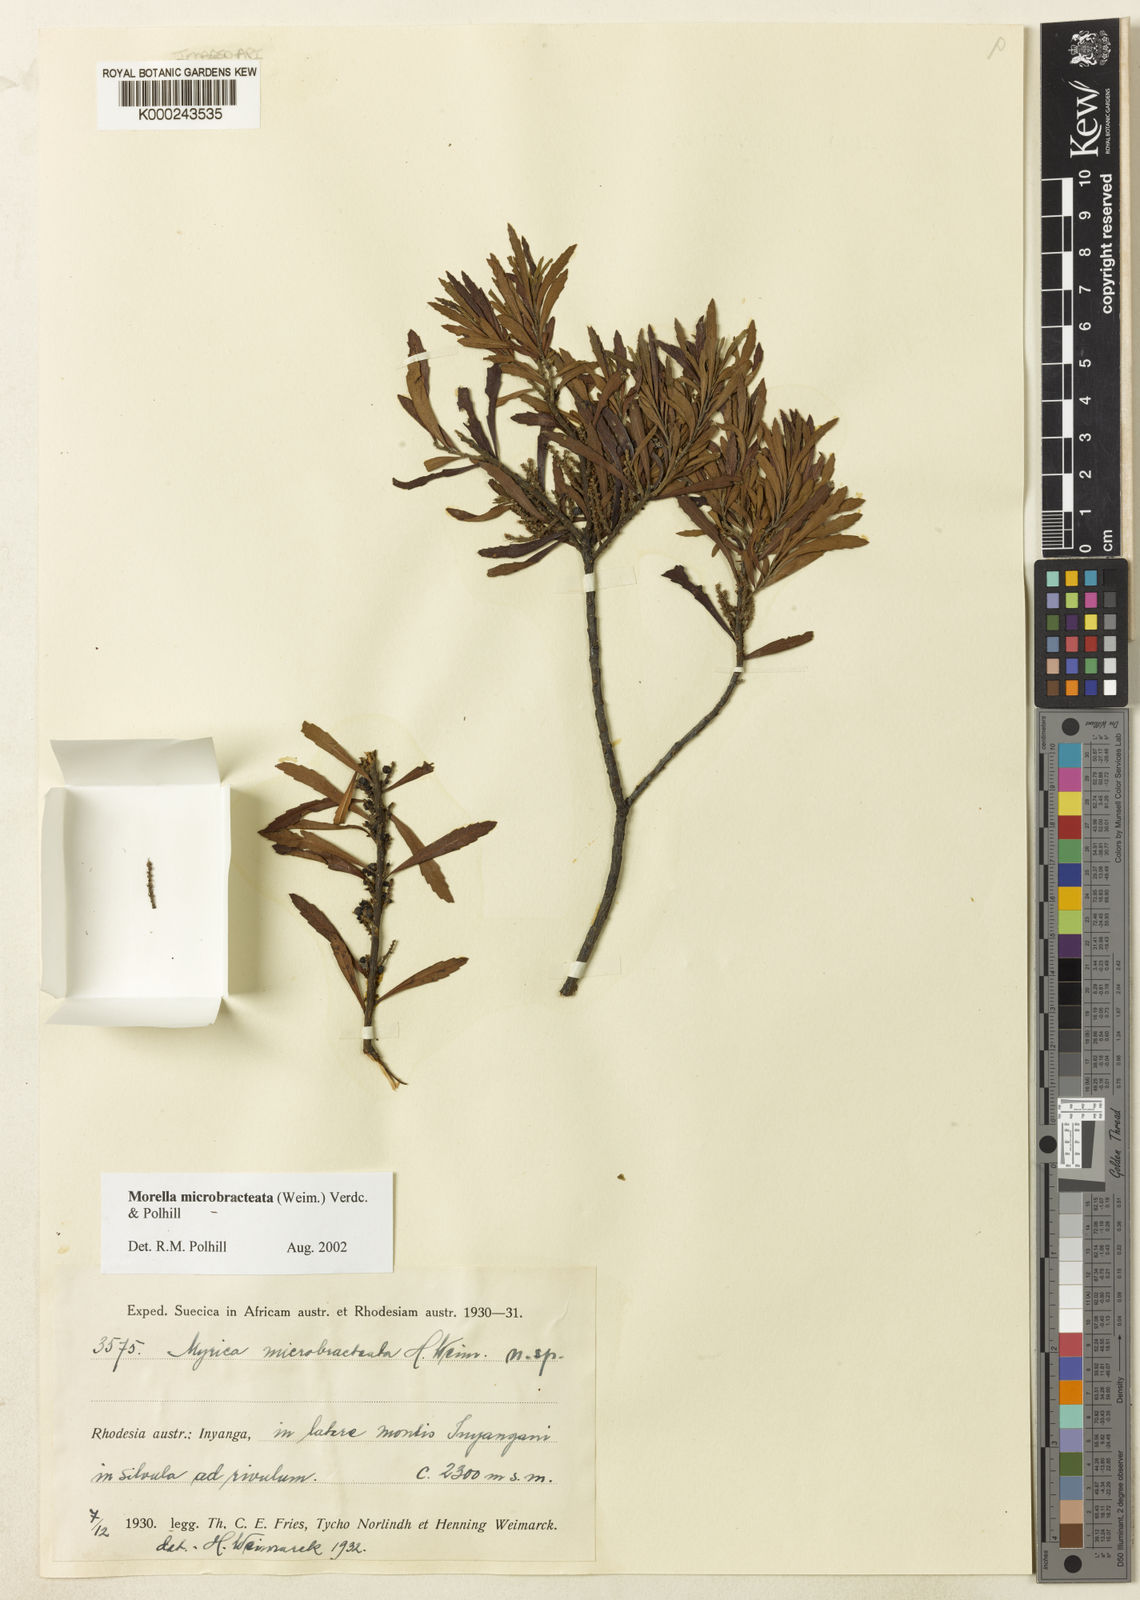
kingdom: Plantae
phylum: Tracheophyta
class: Magnoliopsida
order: Fagales
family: Myricaceae
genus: Morella
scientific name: Morella microbracteata
